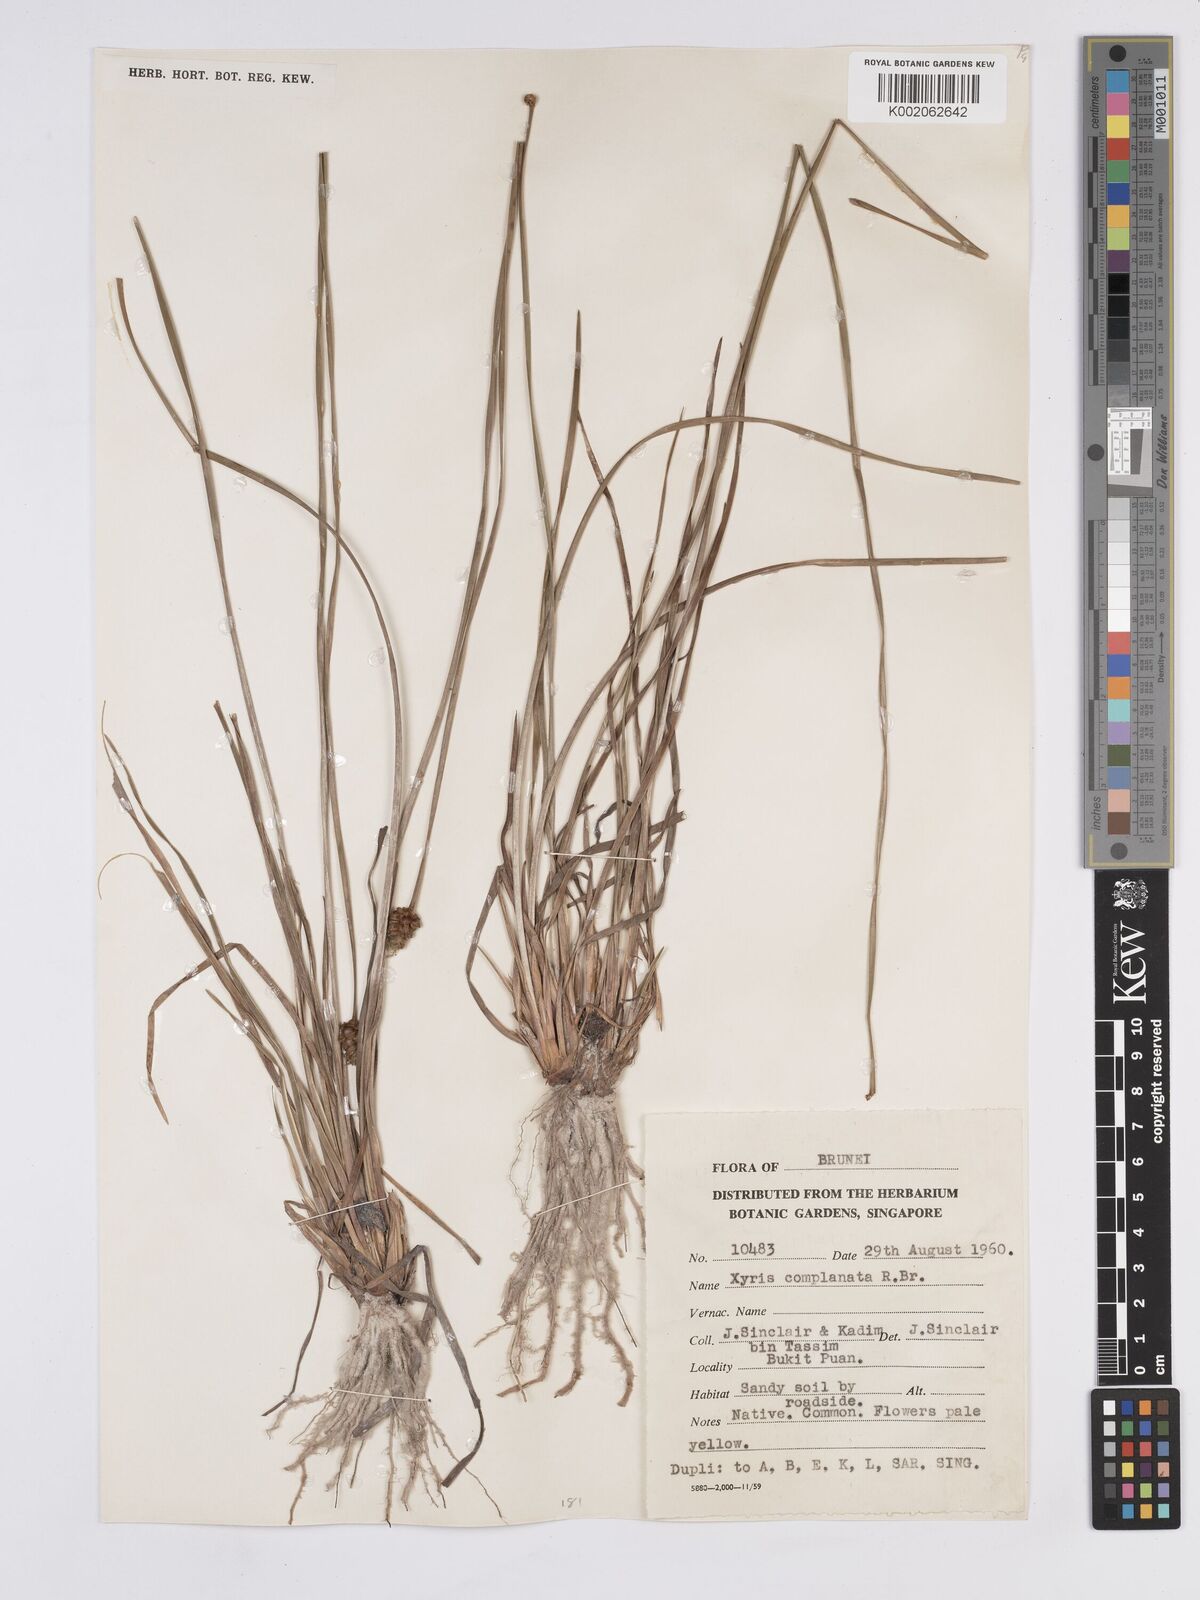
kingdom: Plantae
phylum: Tracheophyta
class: Liliopsida
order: Poales
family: Xyridaceae
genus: Xyris
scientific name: Xyris complanata
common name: Hawai'i yelloweyed grass
